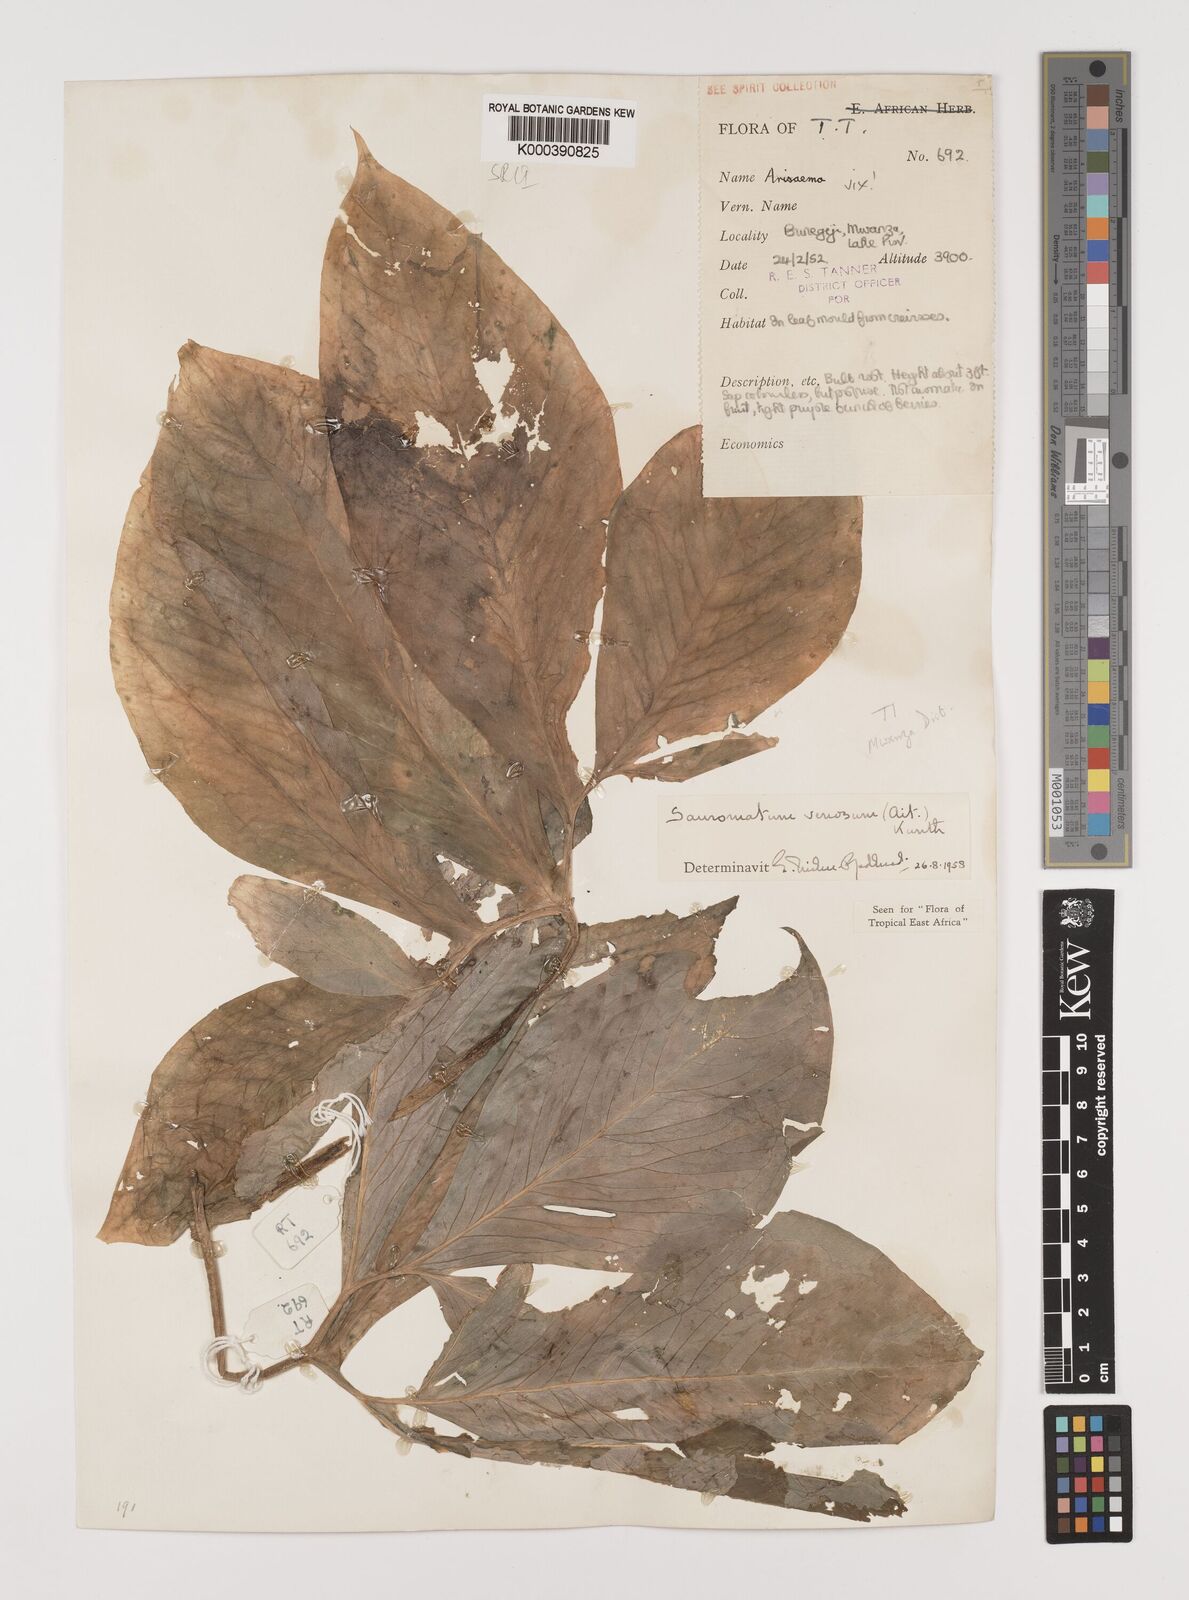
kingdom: Plantae
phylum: Tracheophyta
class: Liliopsida
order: Alismatales
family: Araceae
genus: Sauromatum
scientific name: Sauromatum venosum
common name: Voodoo lily
